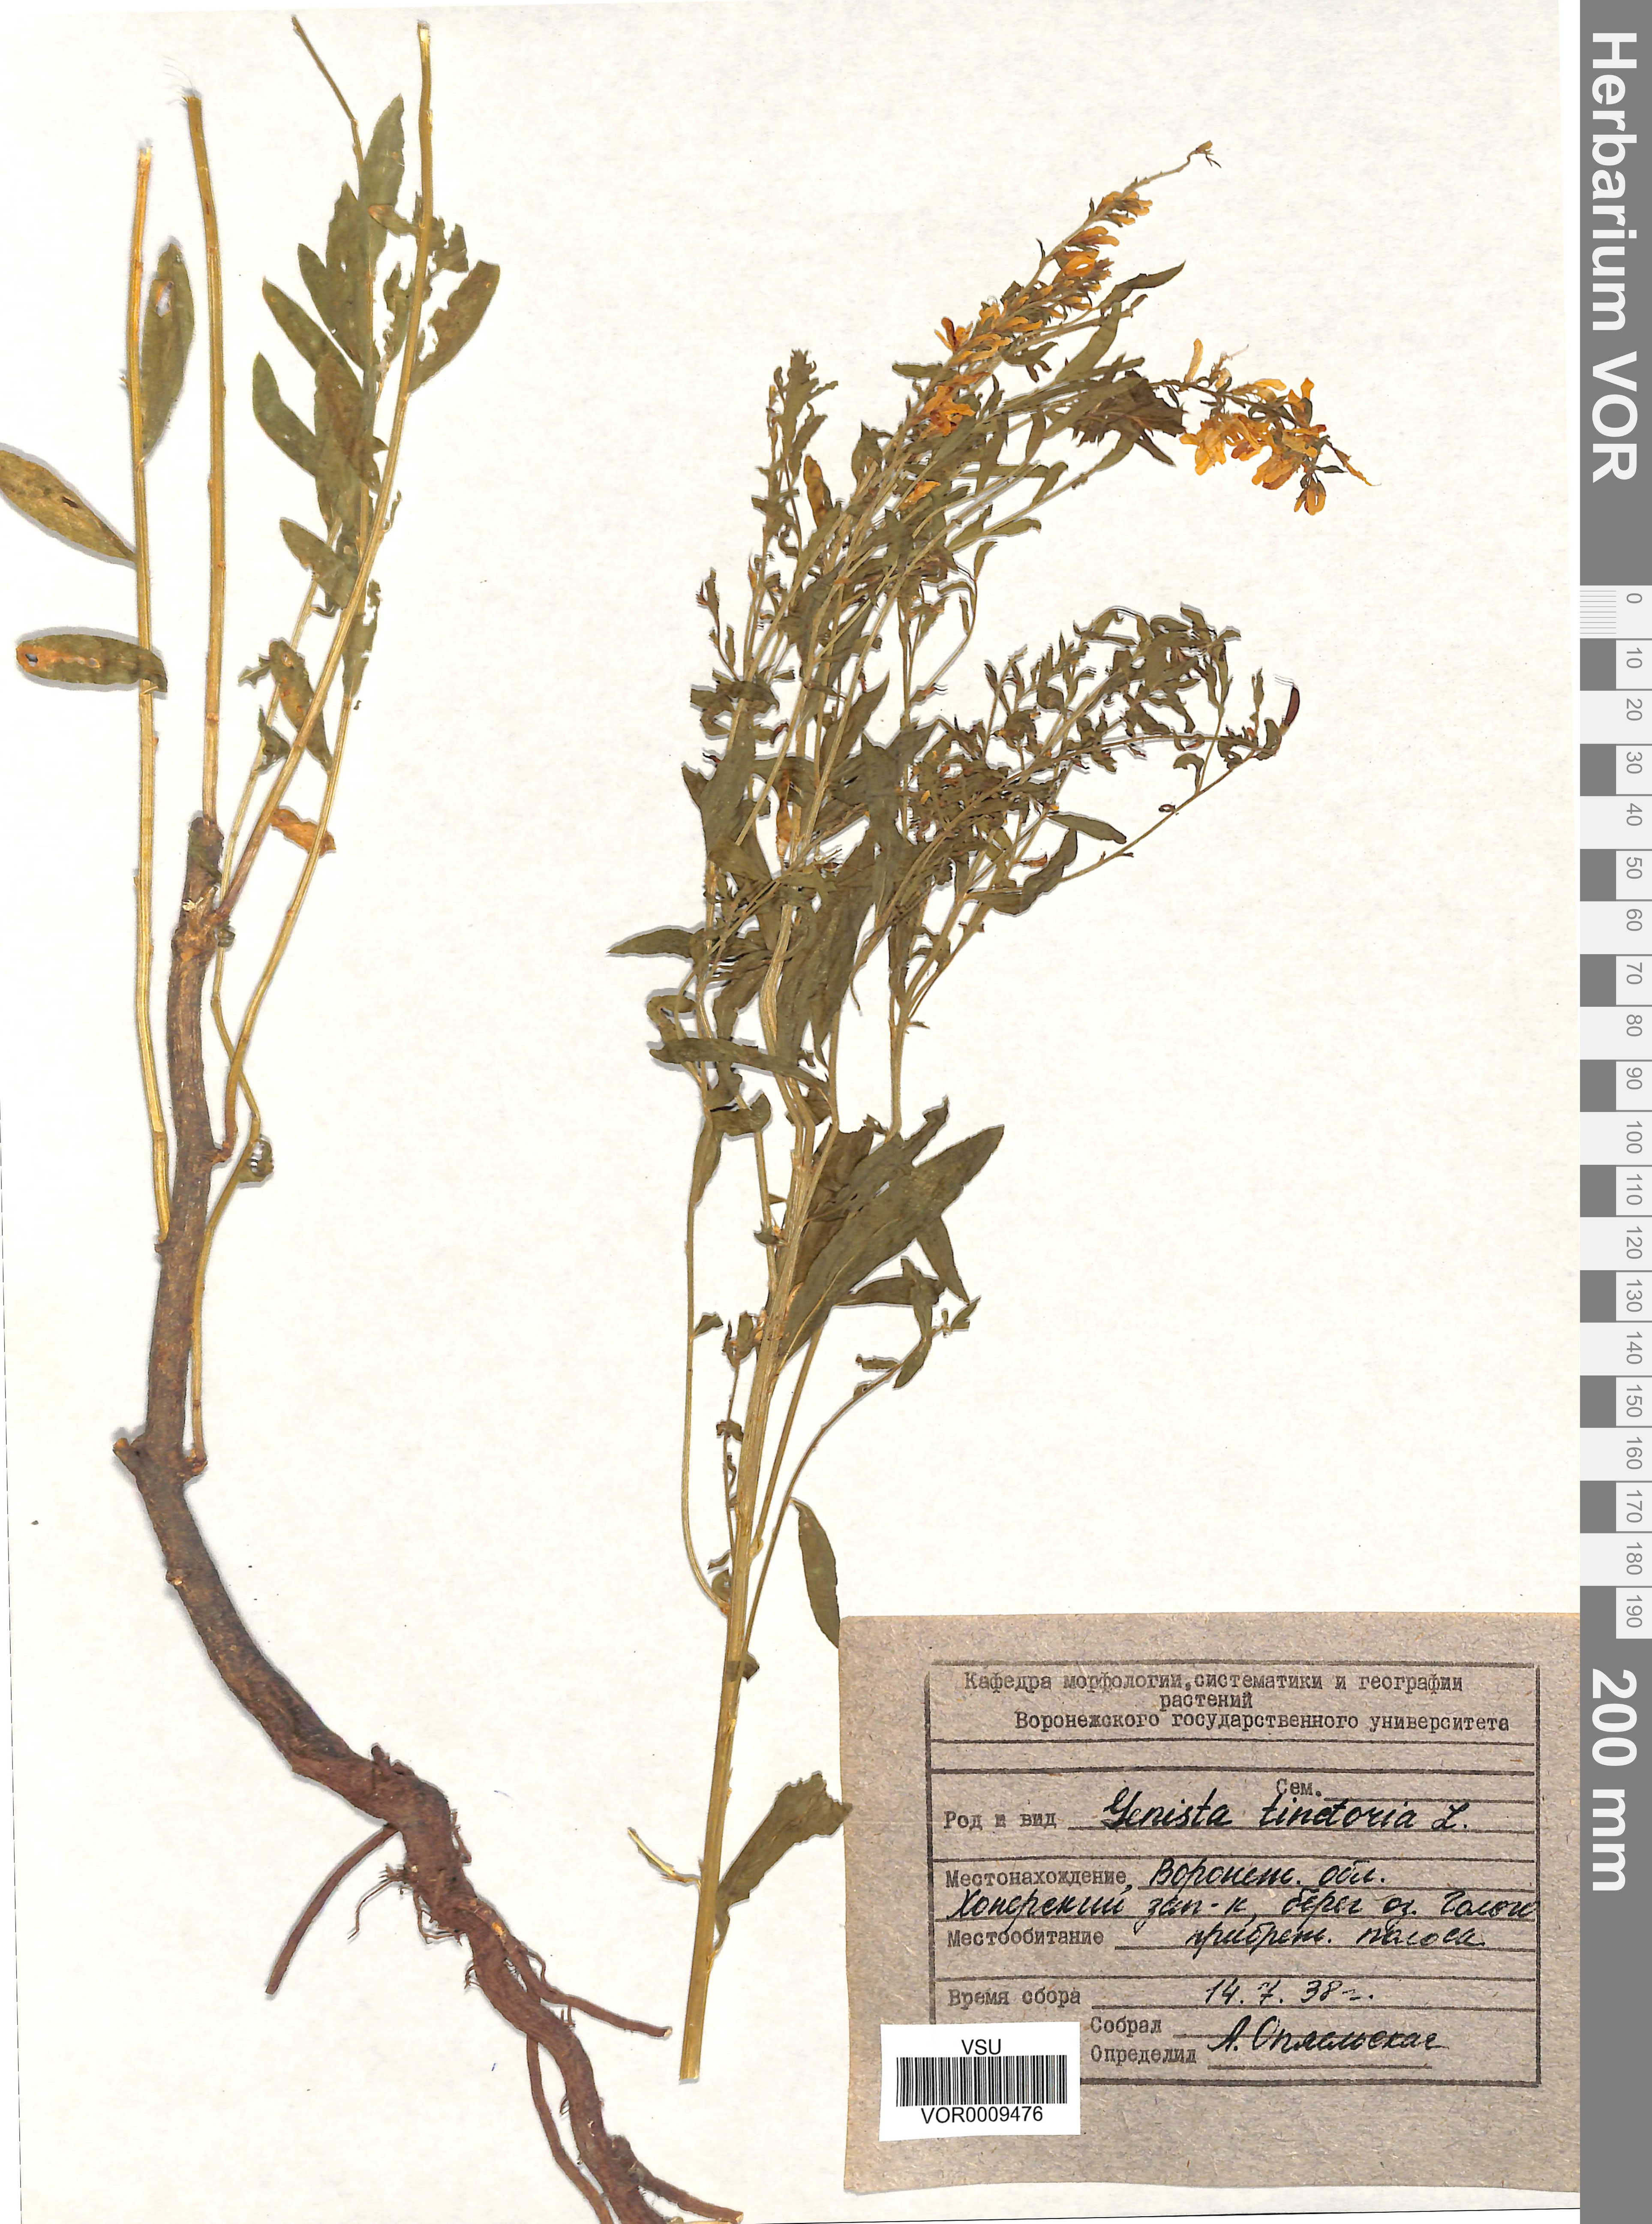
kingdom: Plantae
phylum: Tracheophyta
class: Magnoliopsida
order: Fabales
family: Fabaceae
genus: Genista
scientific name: Genista tinctoria
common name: Dyer's greenweed
